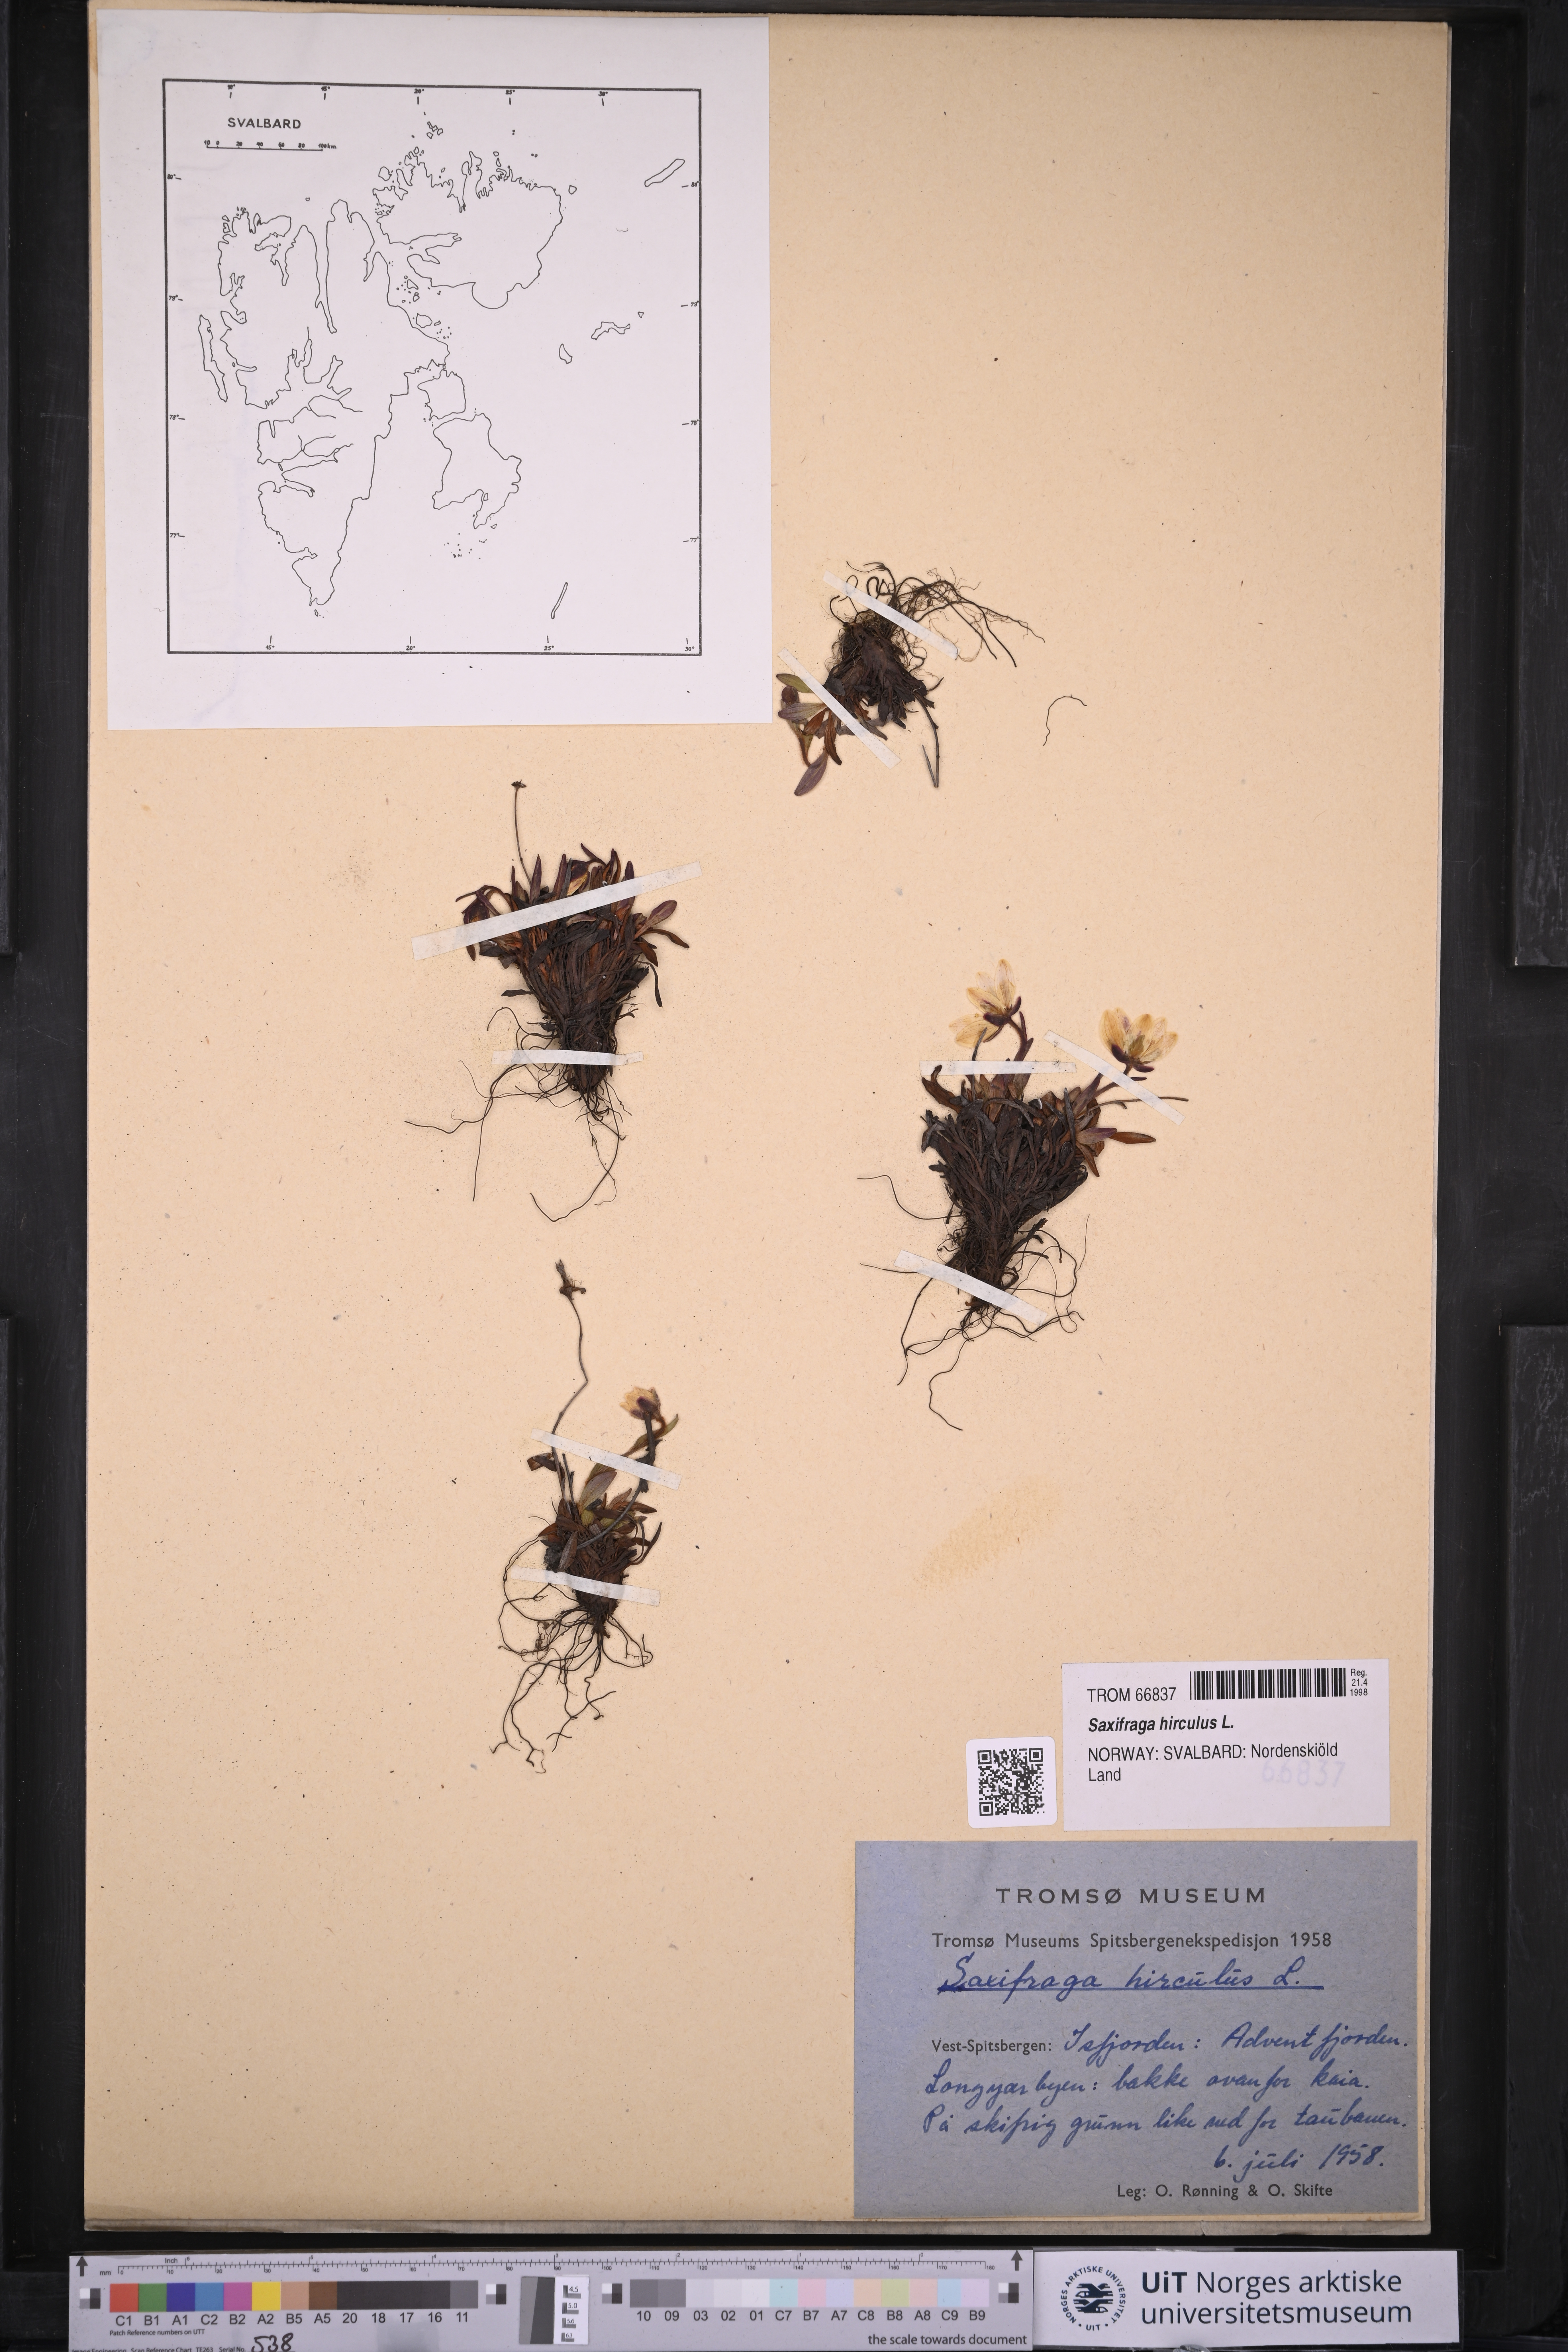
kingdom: Plantae
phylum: Tracheophyta
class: Magnoliopsida
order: Saxifragales
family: Saxifragaceae
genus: Saxifraga
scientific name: Saxifraga hirculus
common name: Yellow marsh saxifrage
